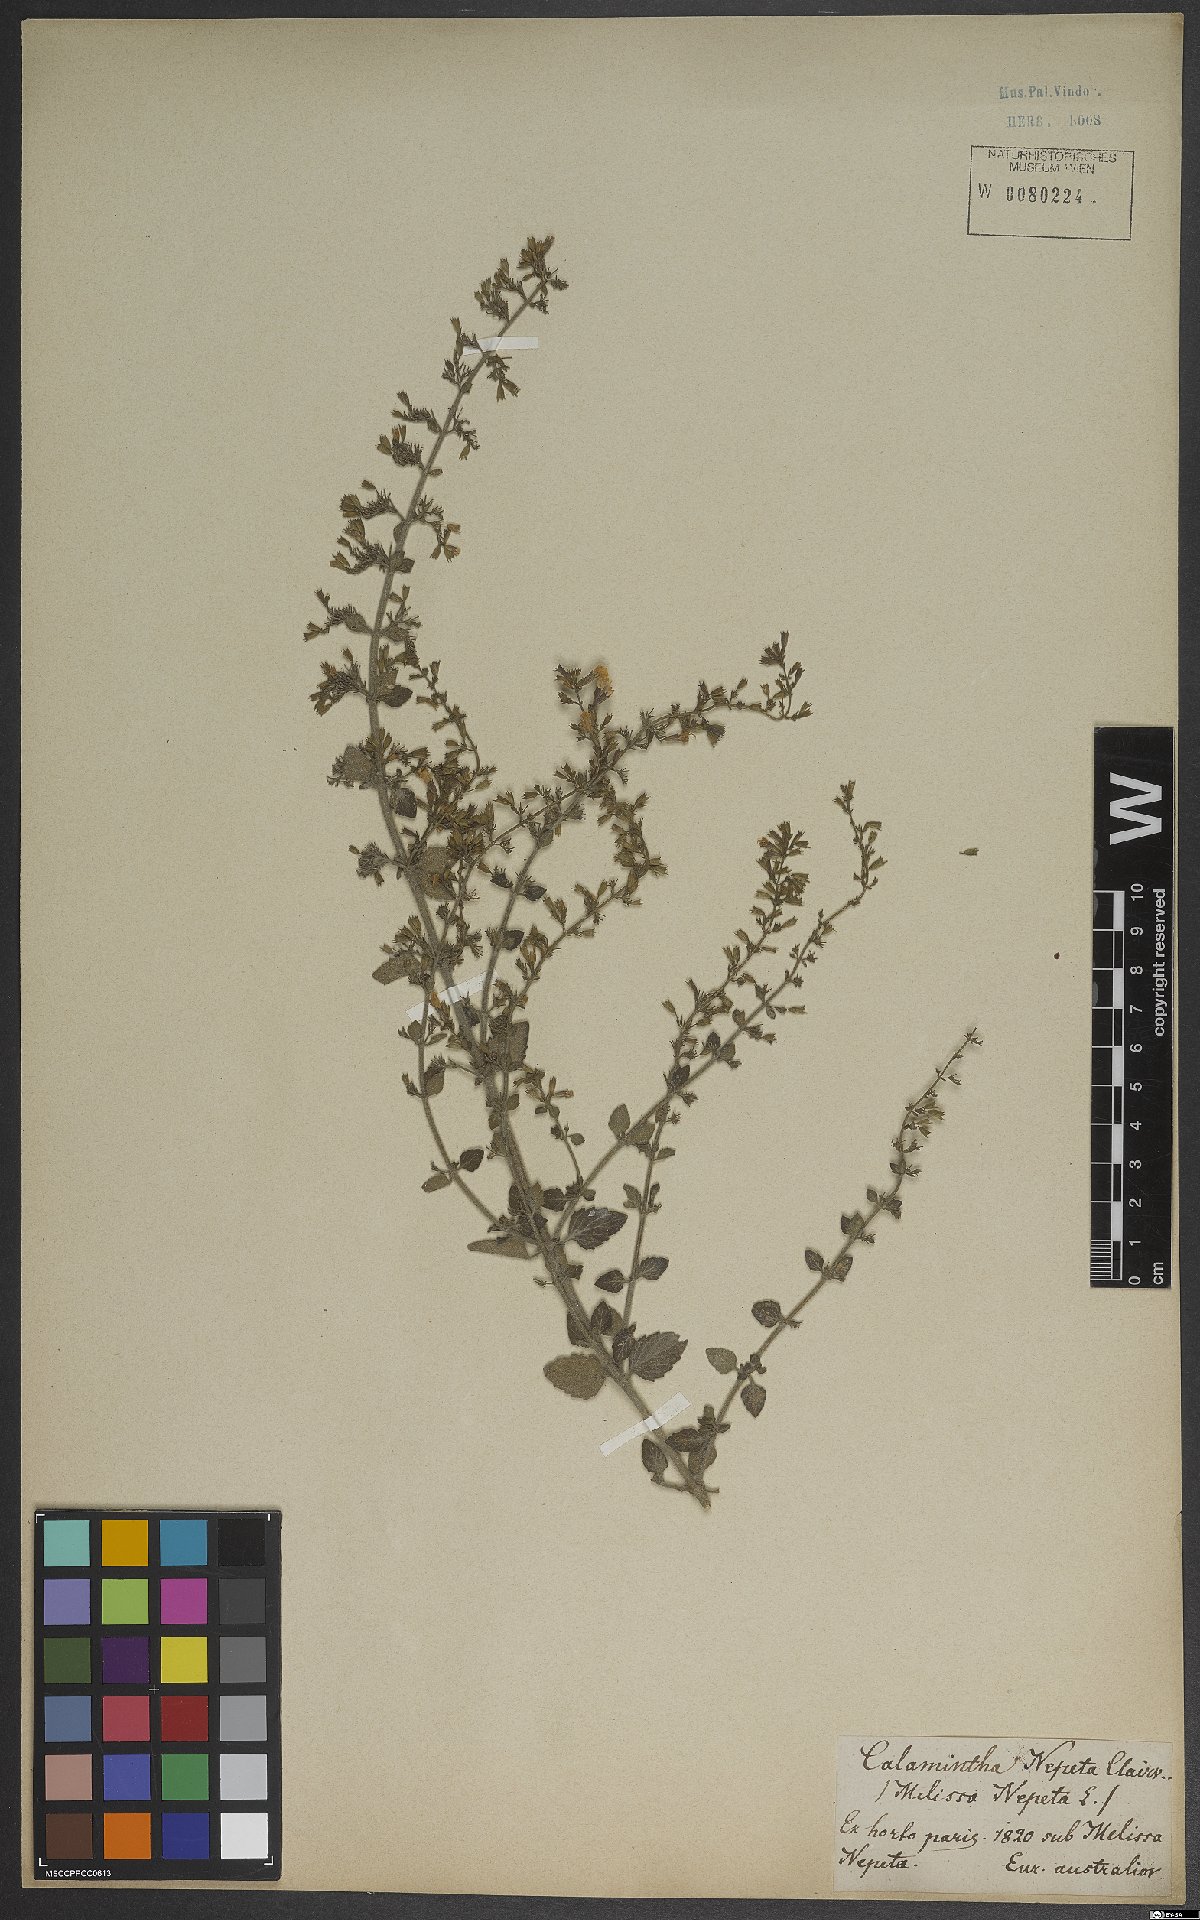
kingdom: Plantae
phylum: Tracheophyta
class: Magnoliopsida
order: Lamiales
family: Lamiaceae
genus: Clinopodium
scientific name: Clinopodium nepeta
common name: Lesser calamint
